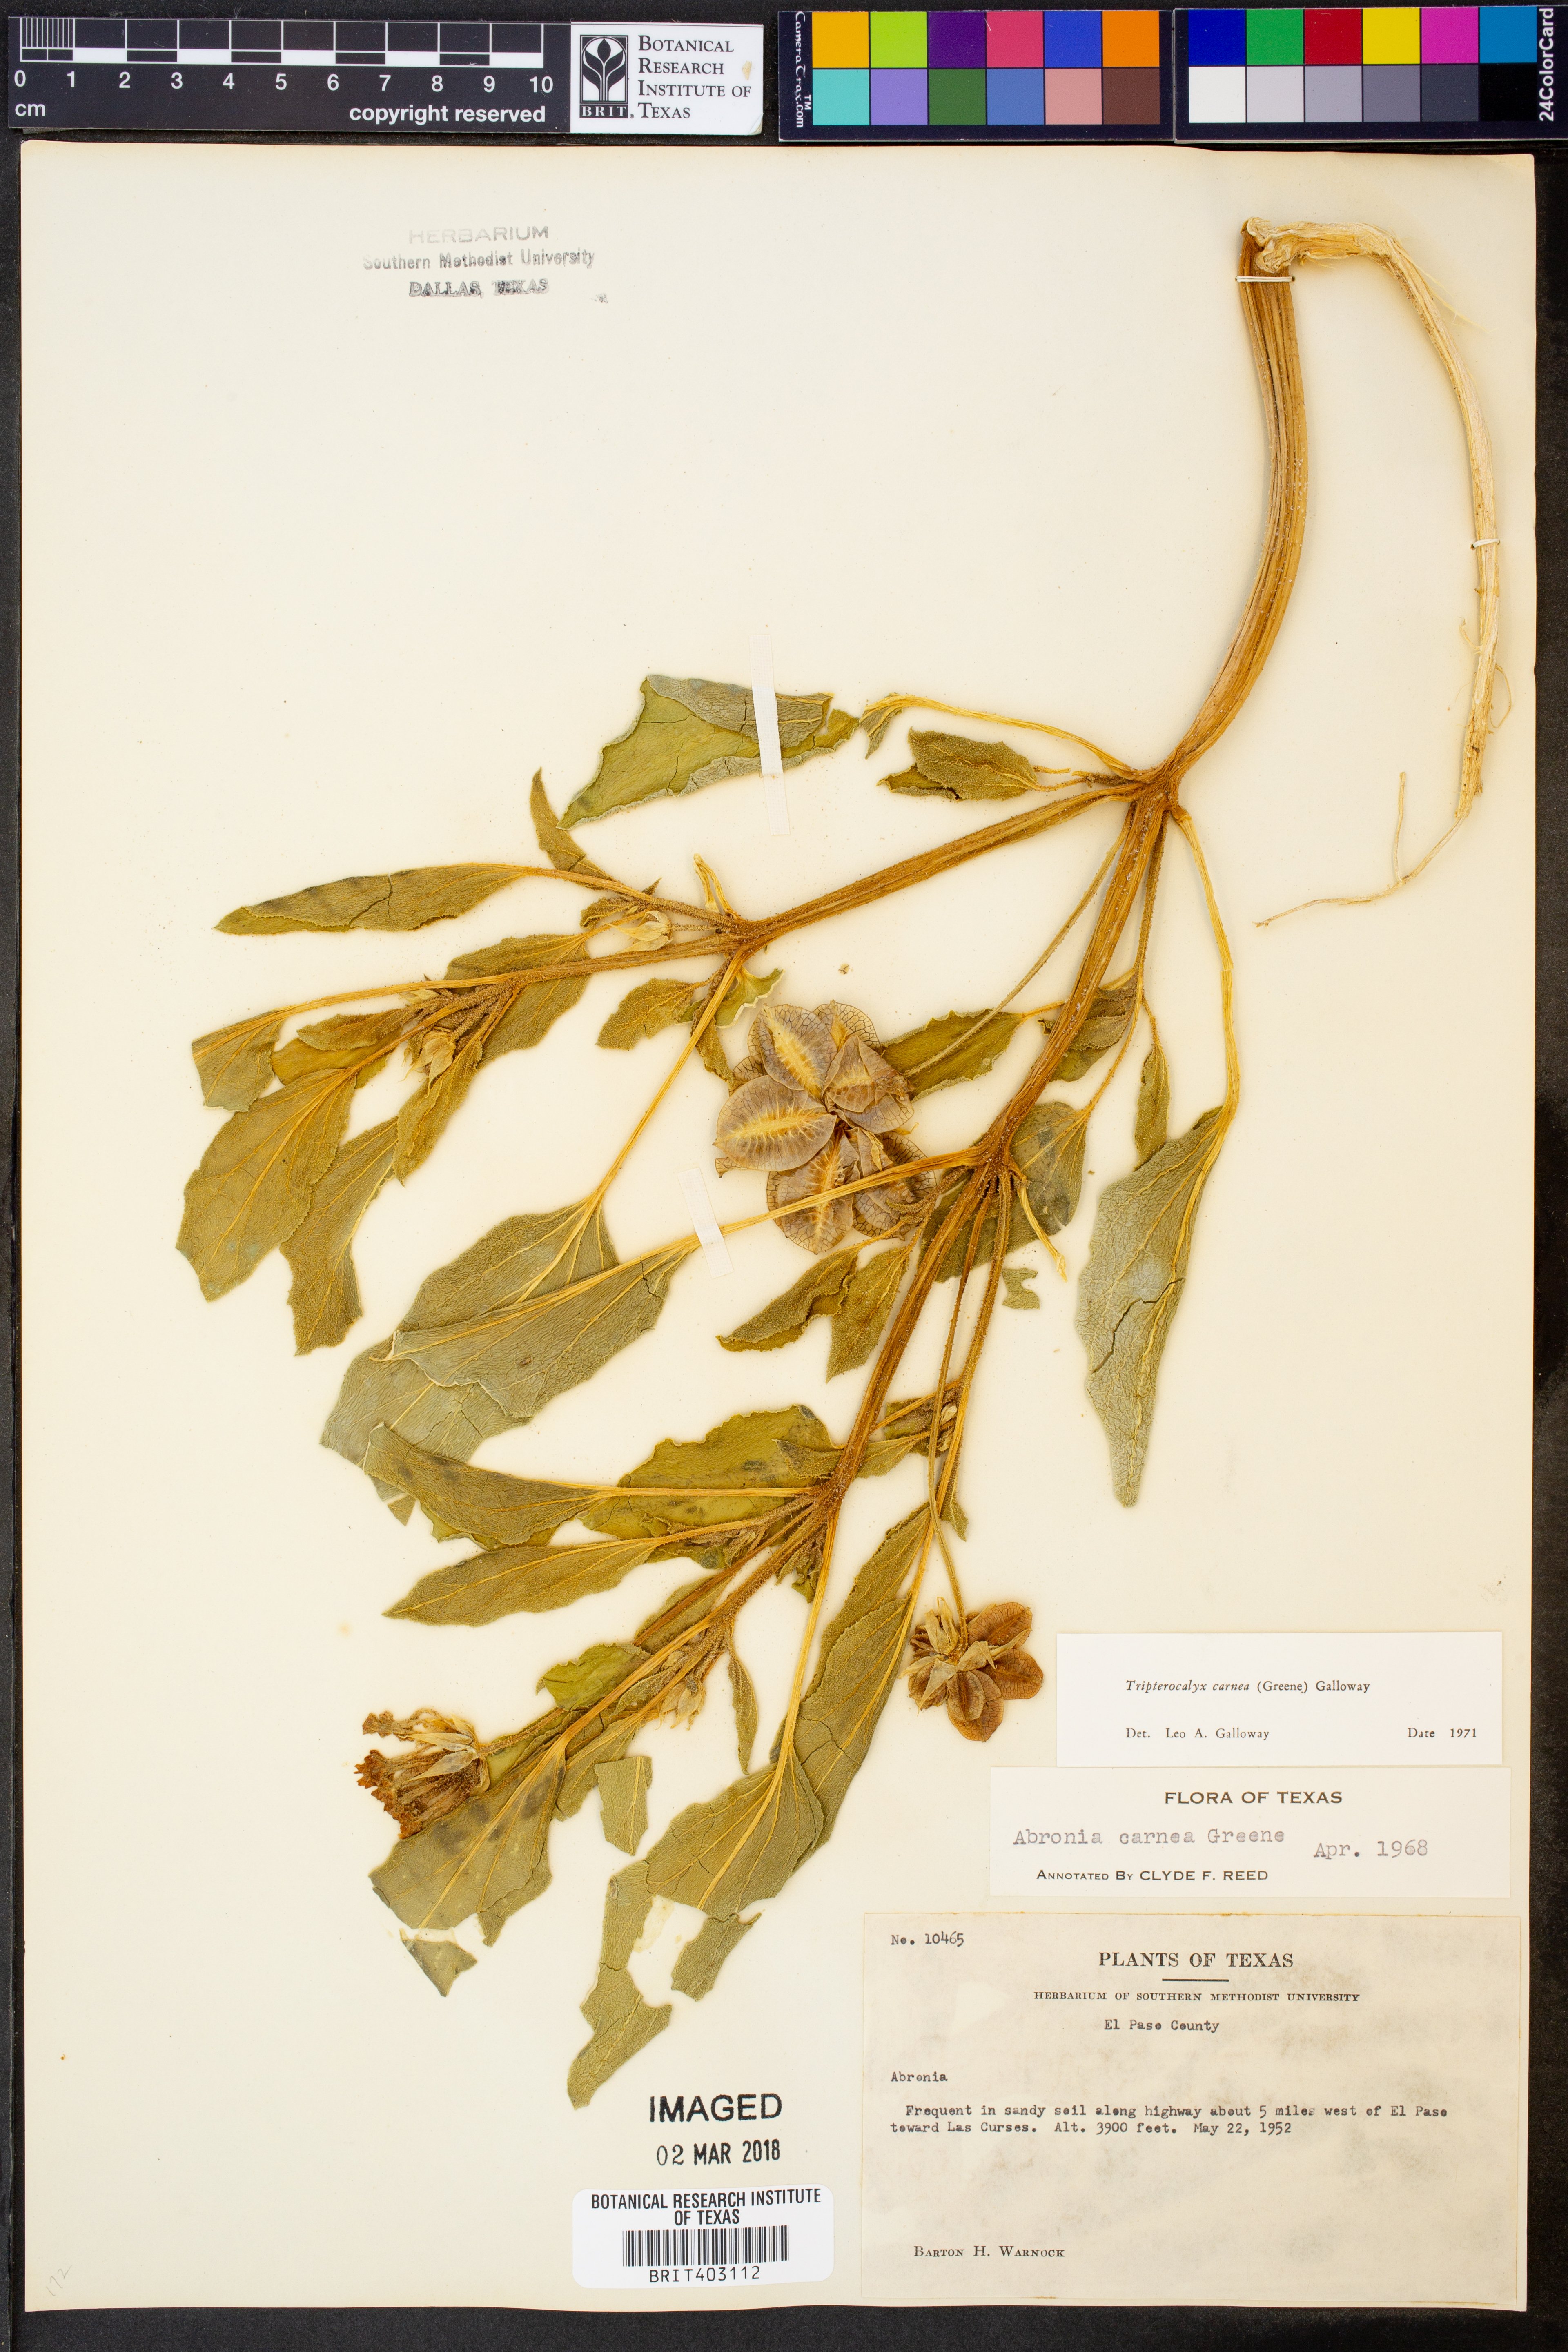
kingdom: Plantae
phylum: Tracheophyta
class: Magnoliopsida
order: Caryophyllales
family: Nyctaginaceae
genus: Tripterocalyx
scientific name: Tripterocalyx carneus
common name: Winged sandpuffs
